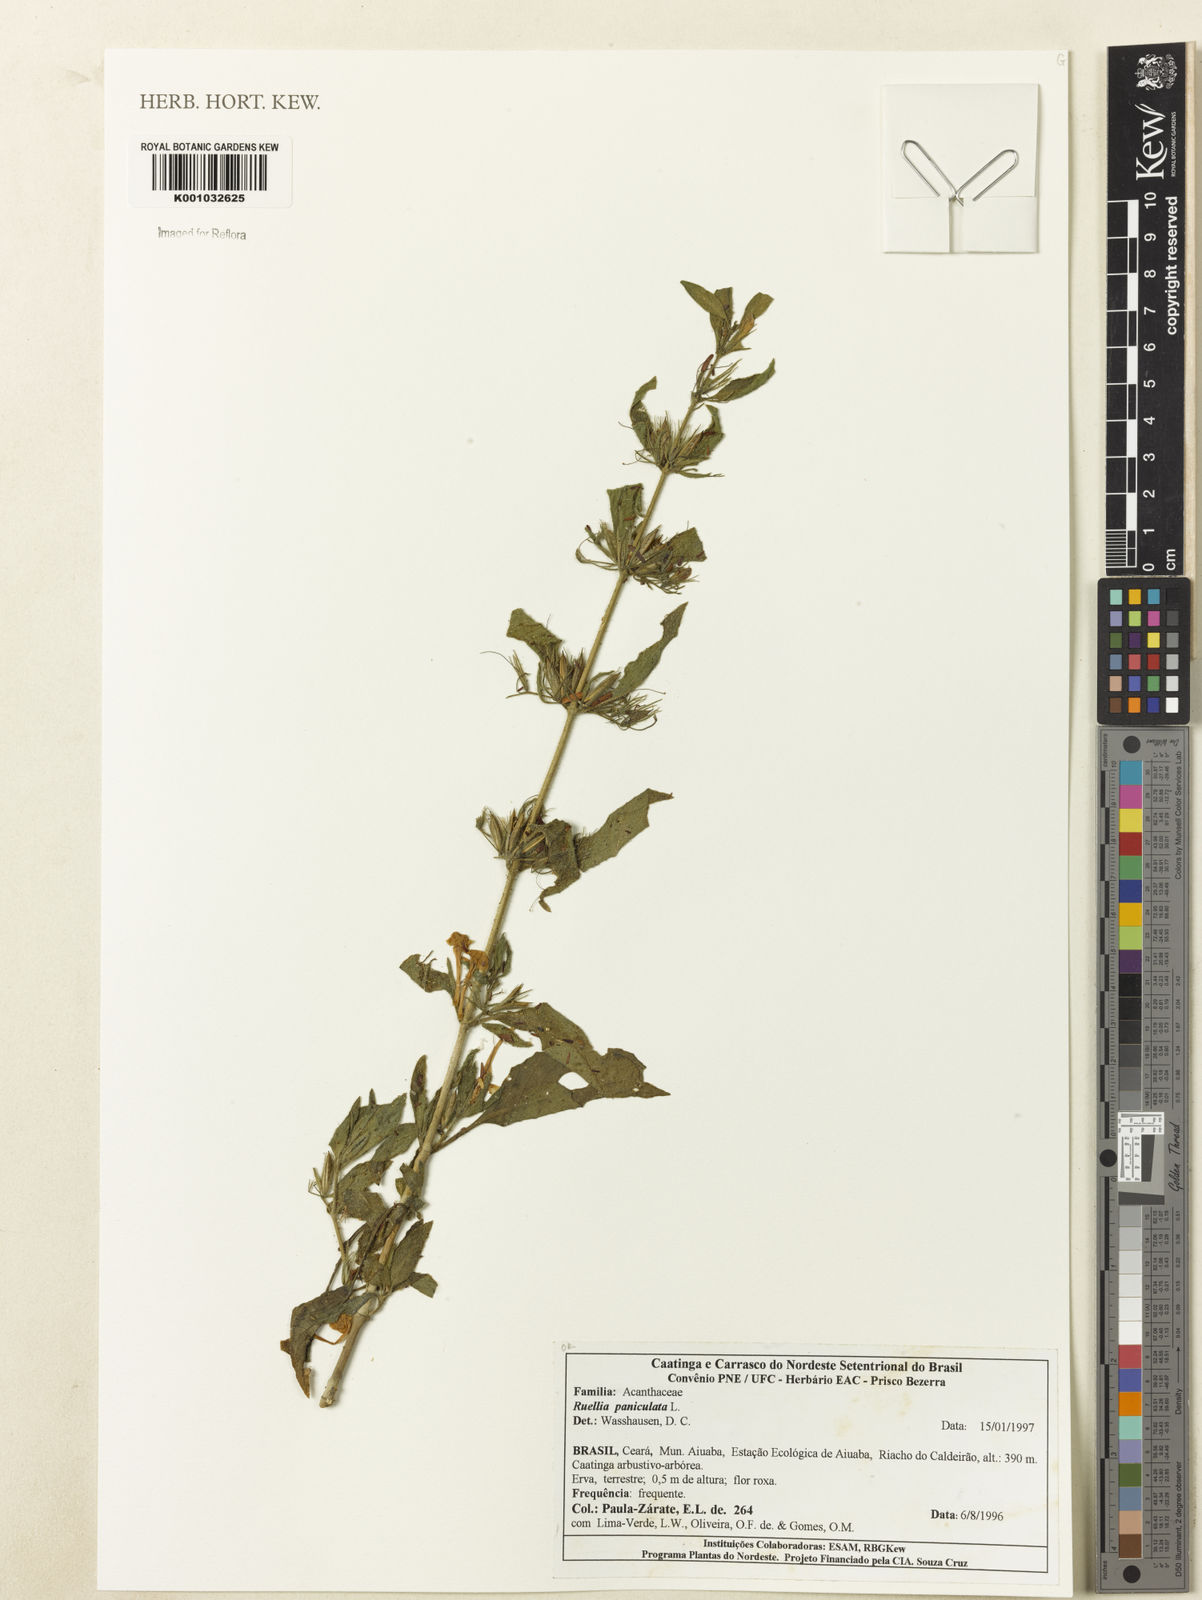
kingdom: Plantae
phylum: Tracheophyta
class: Magnoliopsida
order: Lamiales
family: Acanthaceae
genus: Ruellia
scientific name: Ruellia paniculata
